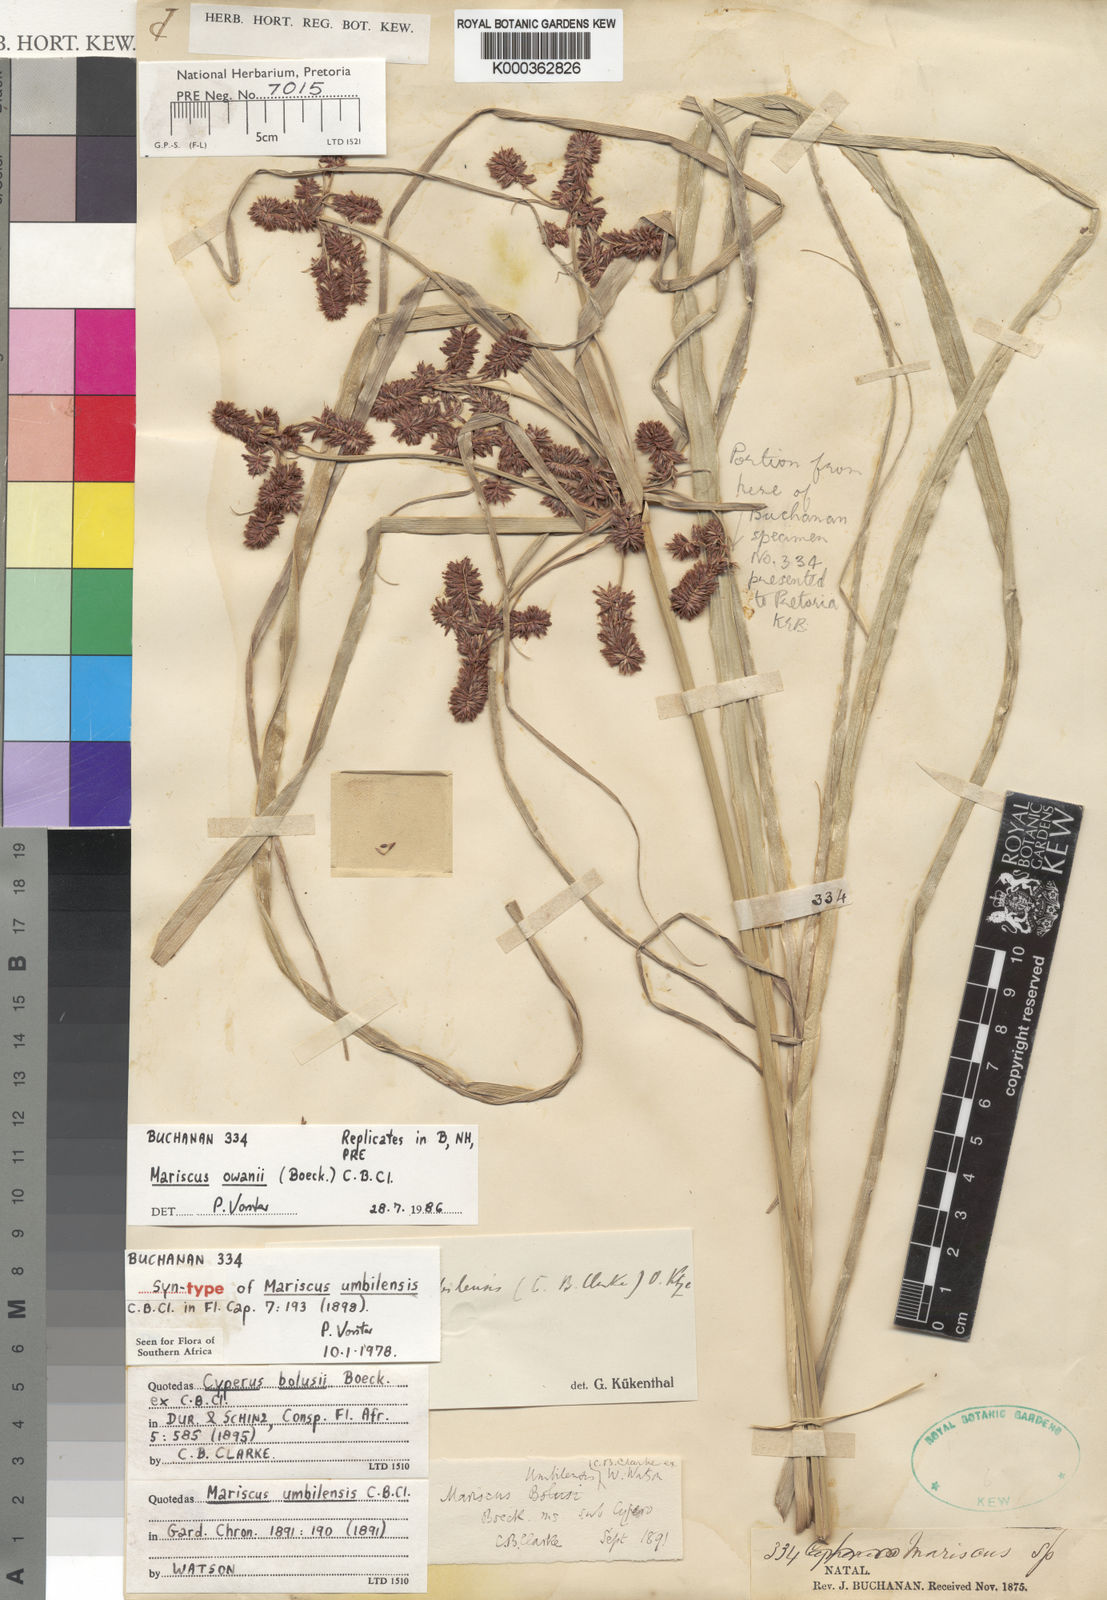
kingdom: Plantae
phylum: Tracheophyta
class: Liliopsida
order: Poales
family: Cyperaceae
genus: Cyperus
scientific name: Cyperus owanii
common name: Owan's flatsedge
